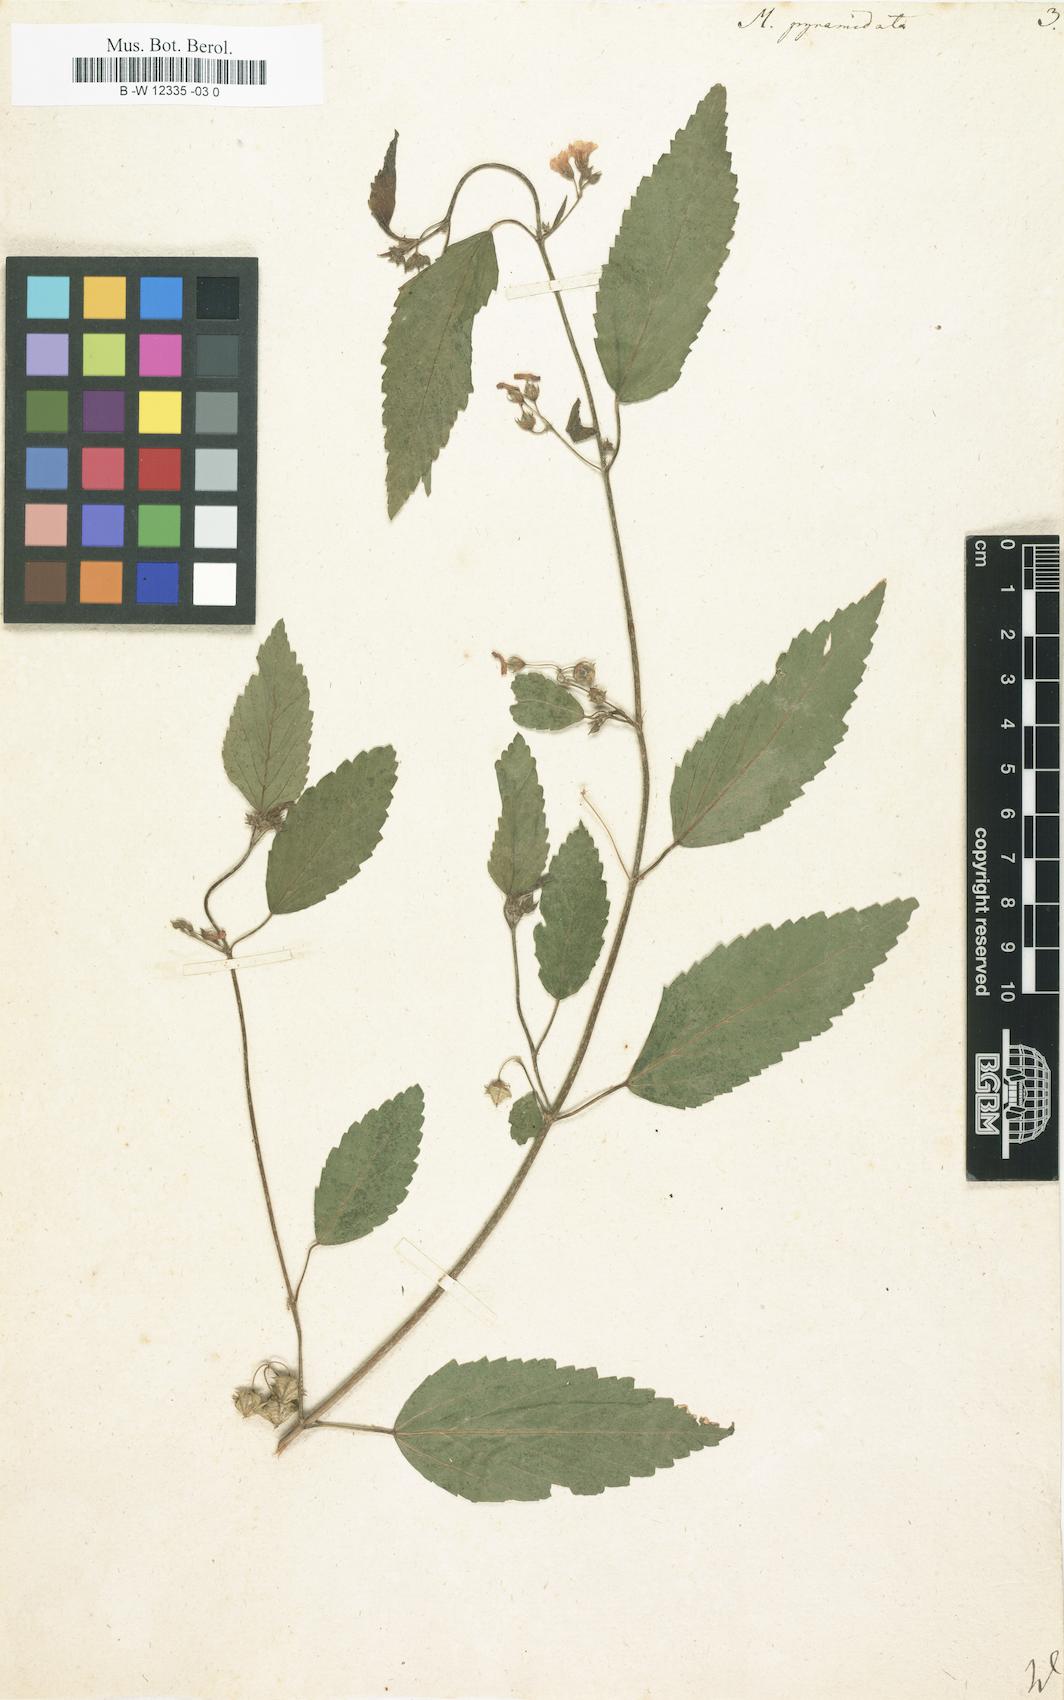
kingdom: Plantae
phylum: Tracheophyta
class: Magnoliopsida
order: Malvales
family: Malvaceae
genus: Melochia
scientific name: Melochia pyramidata
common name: Pyramidflower
